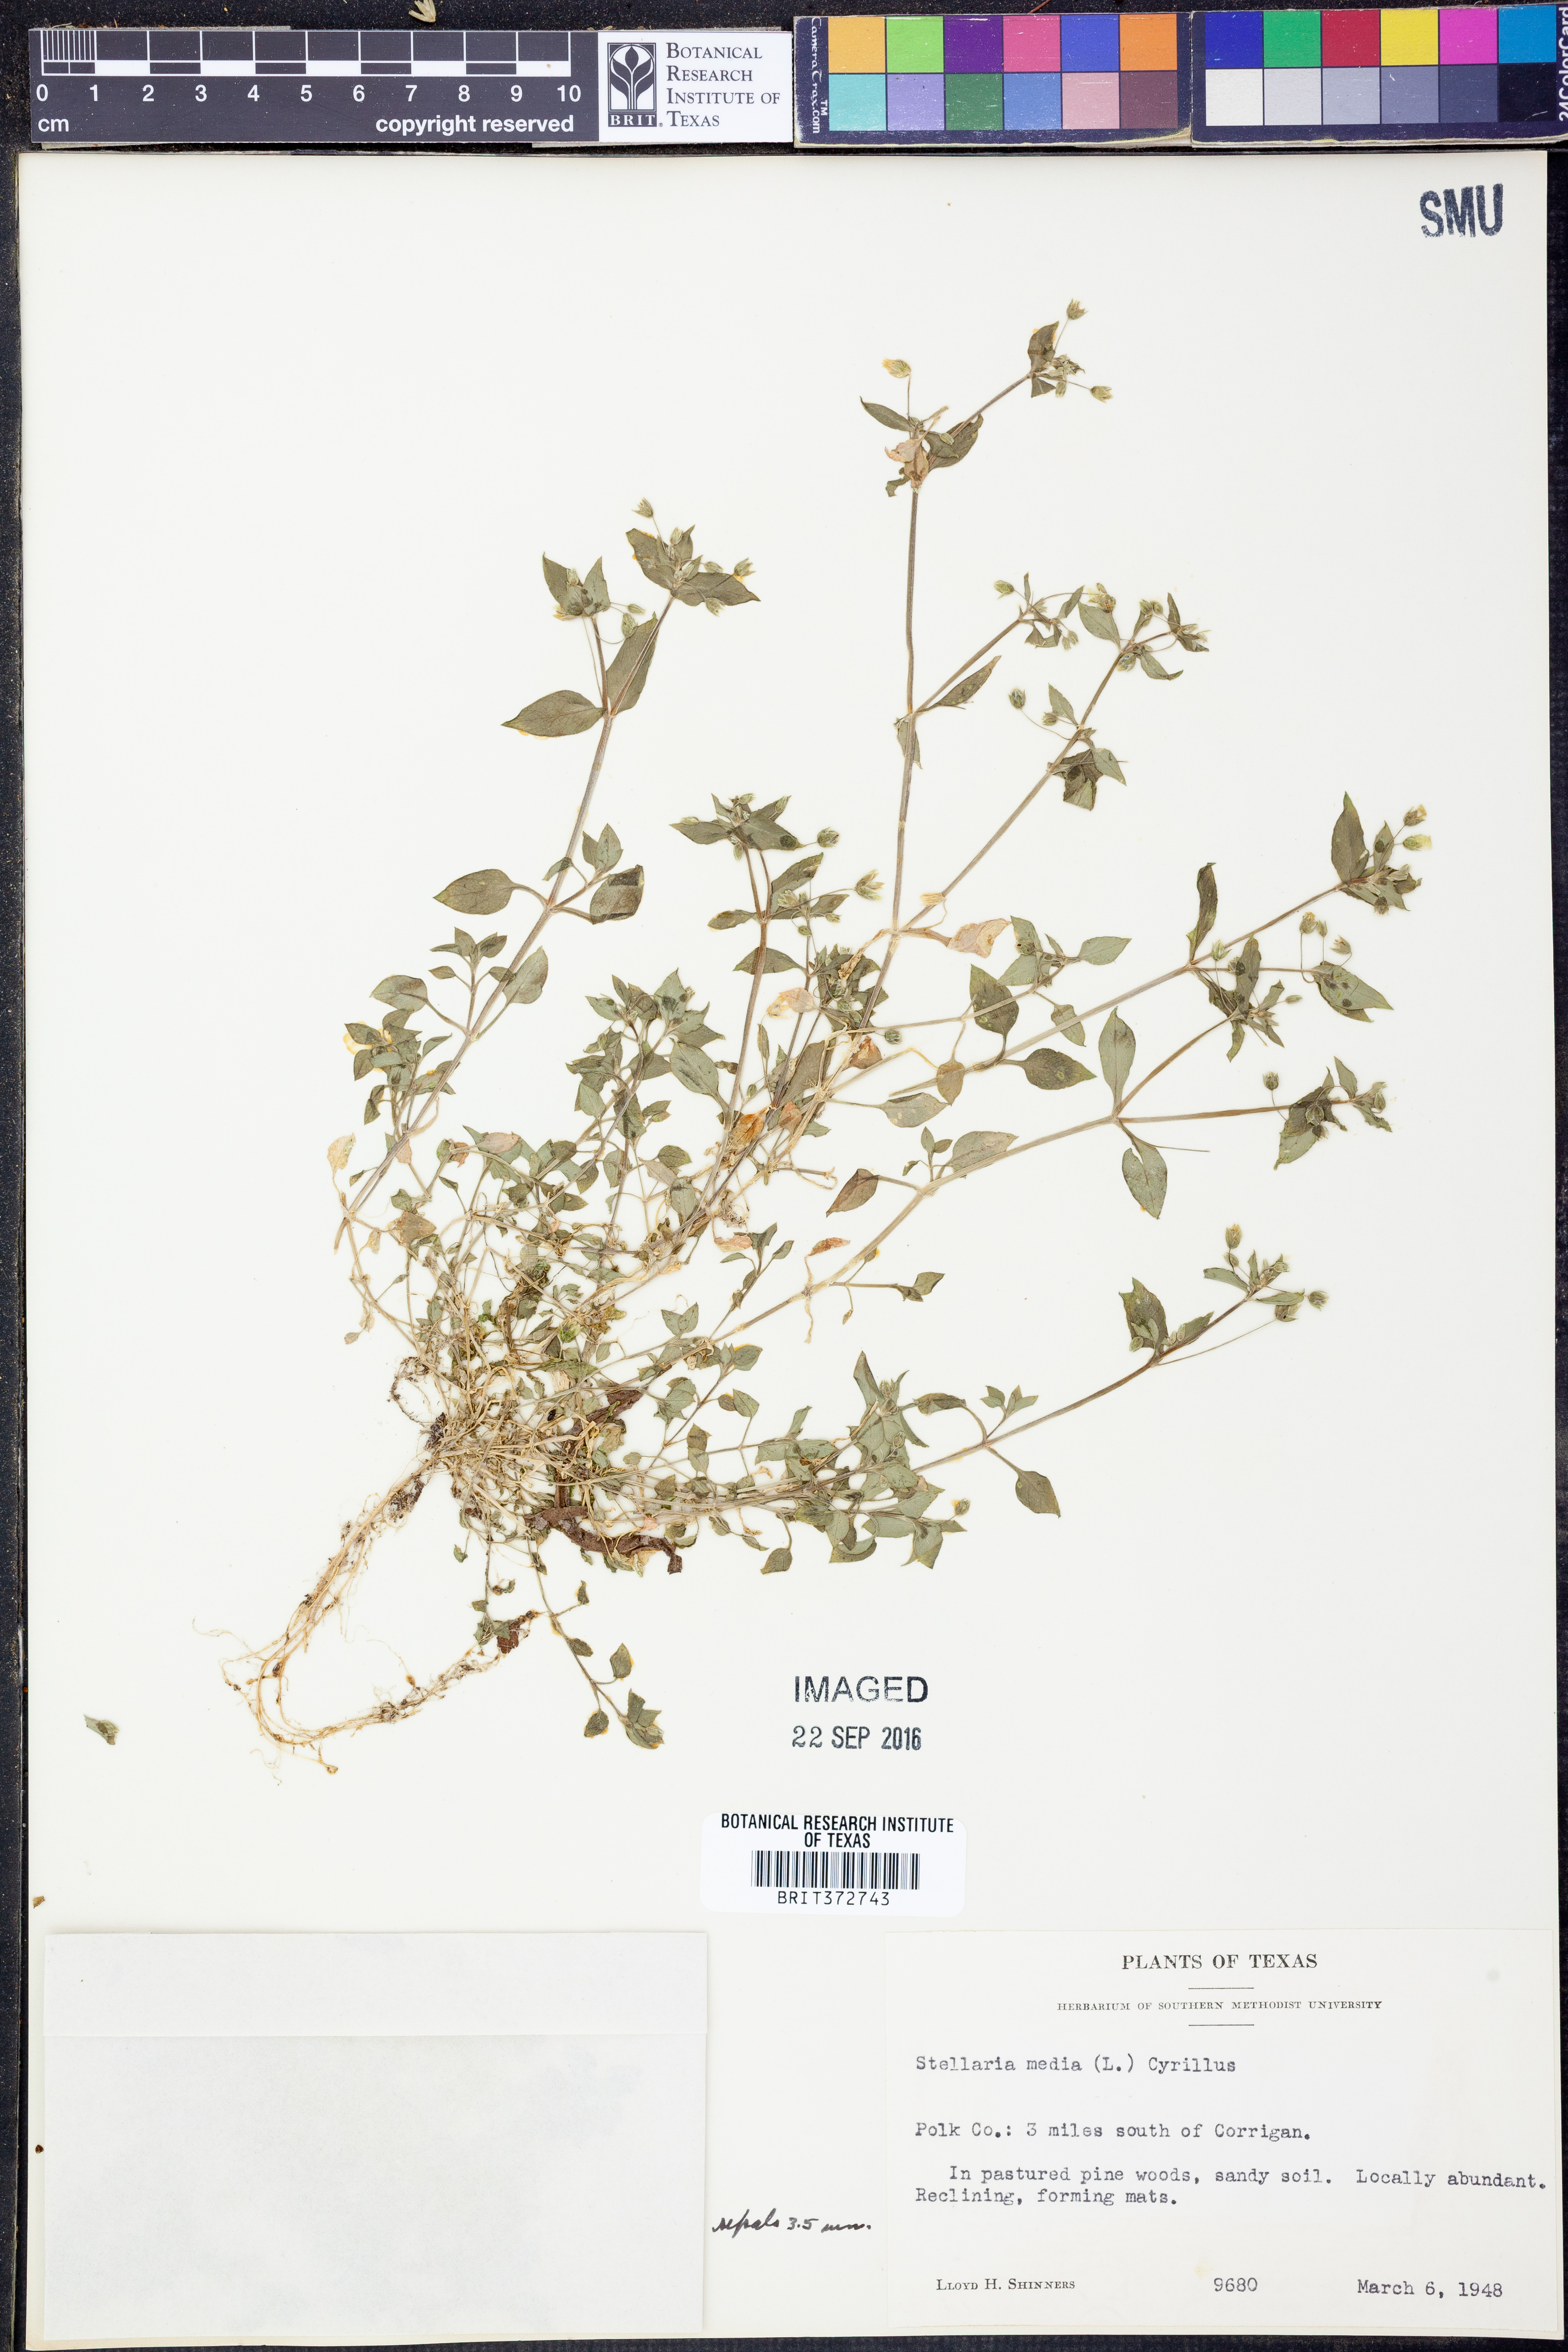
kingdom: Plantae
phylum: Tracheophyta
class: Magnoliopsida
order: Caryophyllales
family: Caryophyllaceae
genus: Stellaria
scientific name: Stellaria media
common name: Common chickweed
